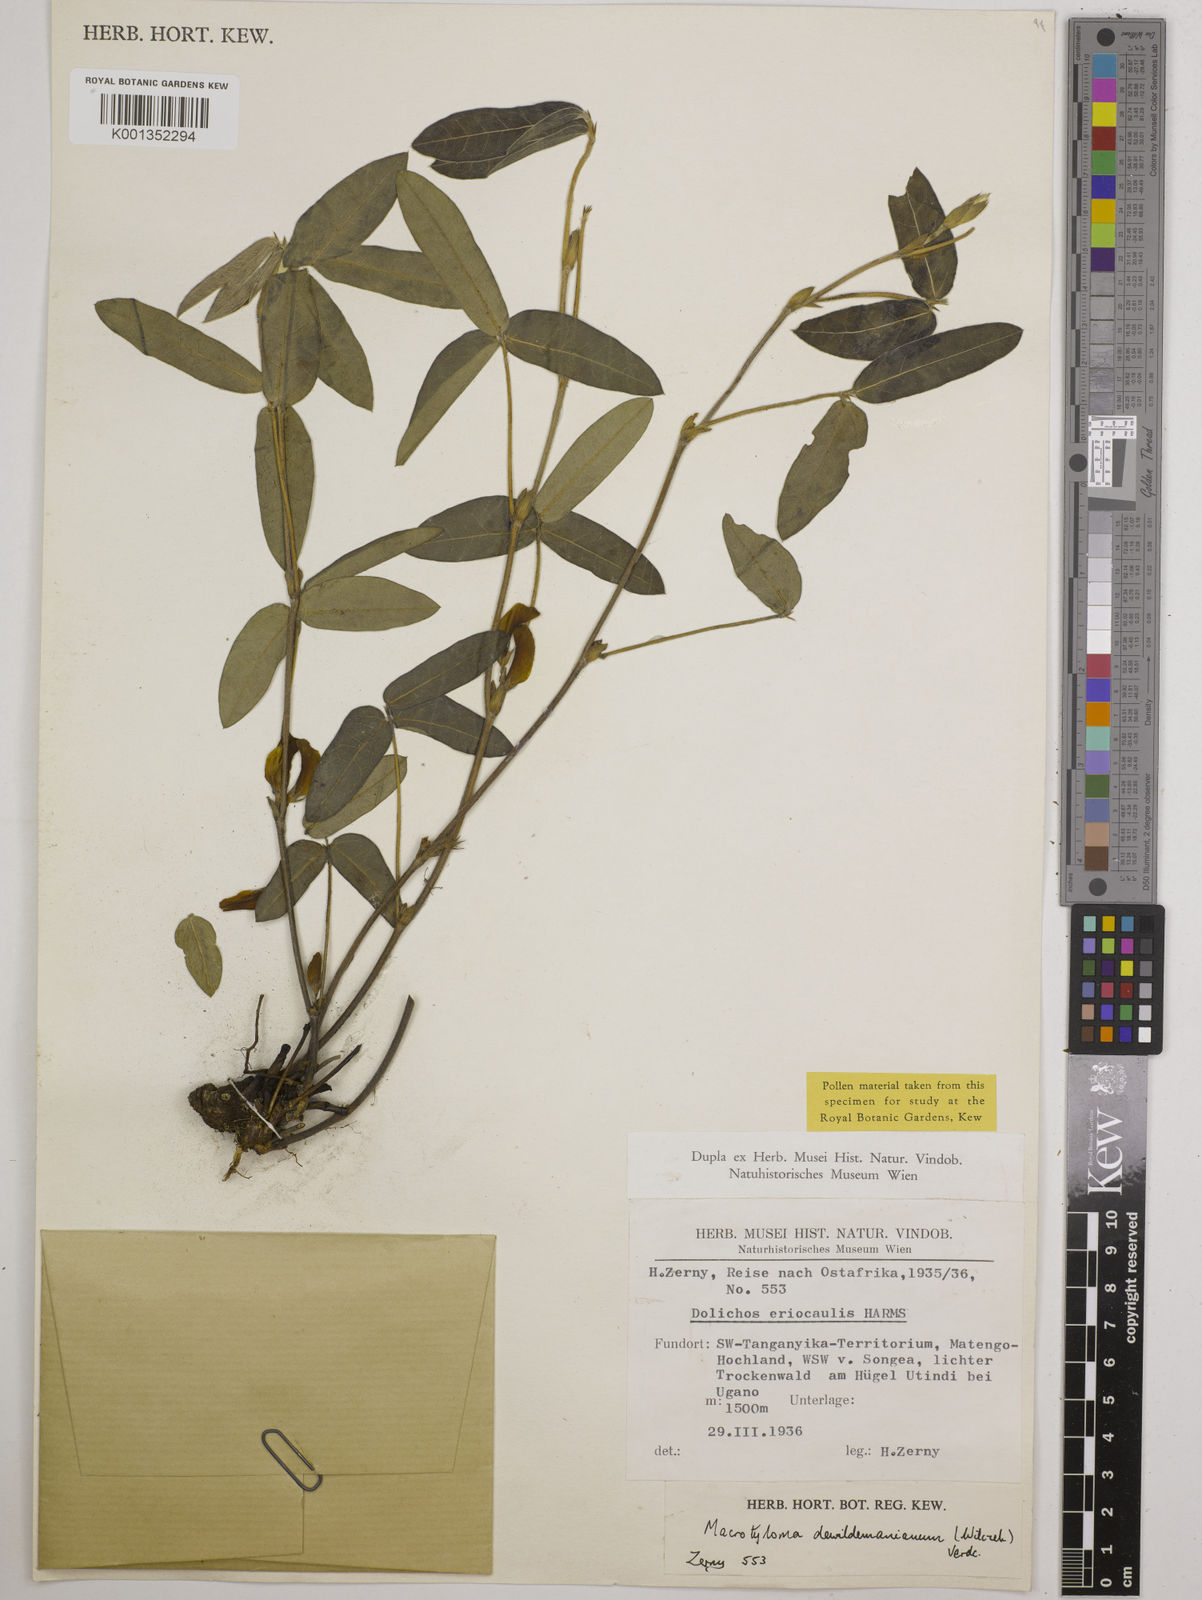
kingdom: Plantae
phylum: Tracheophyta
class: Magnoliopsida
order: Fabales
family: Fabaceae
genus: Macrotyloma
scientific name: Macrotyloma dewildemanianum
